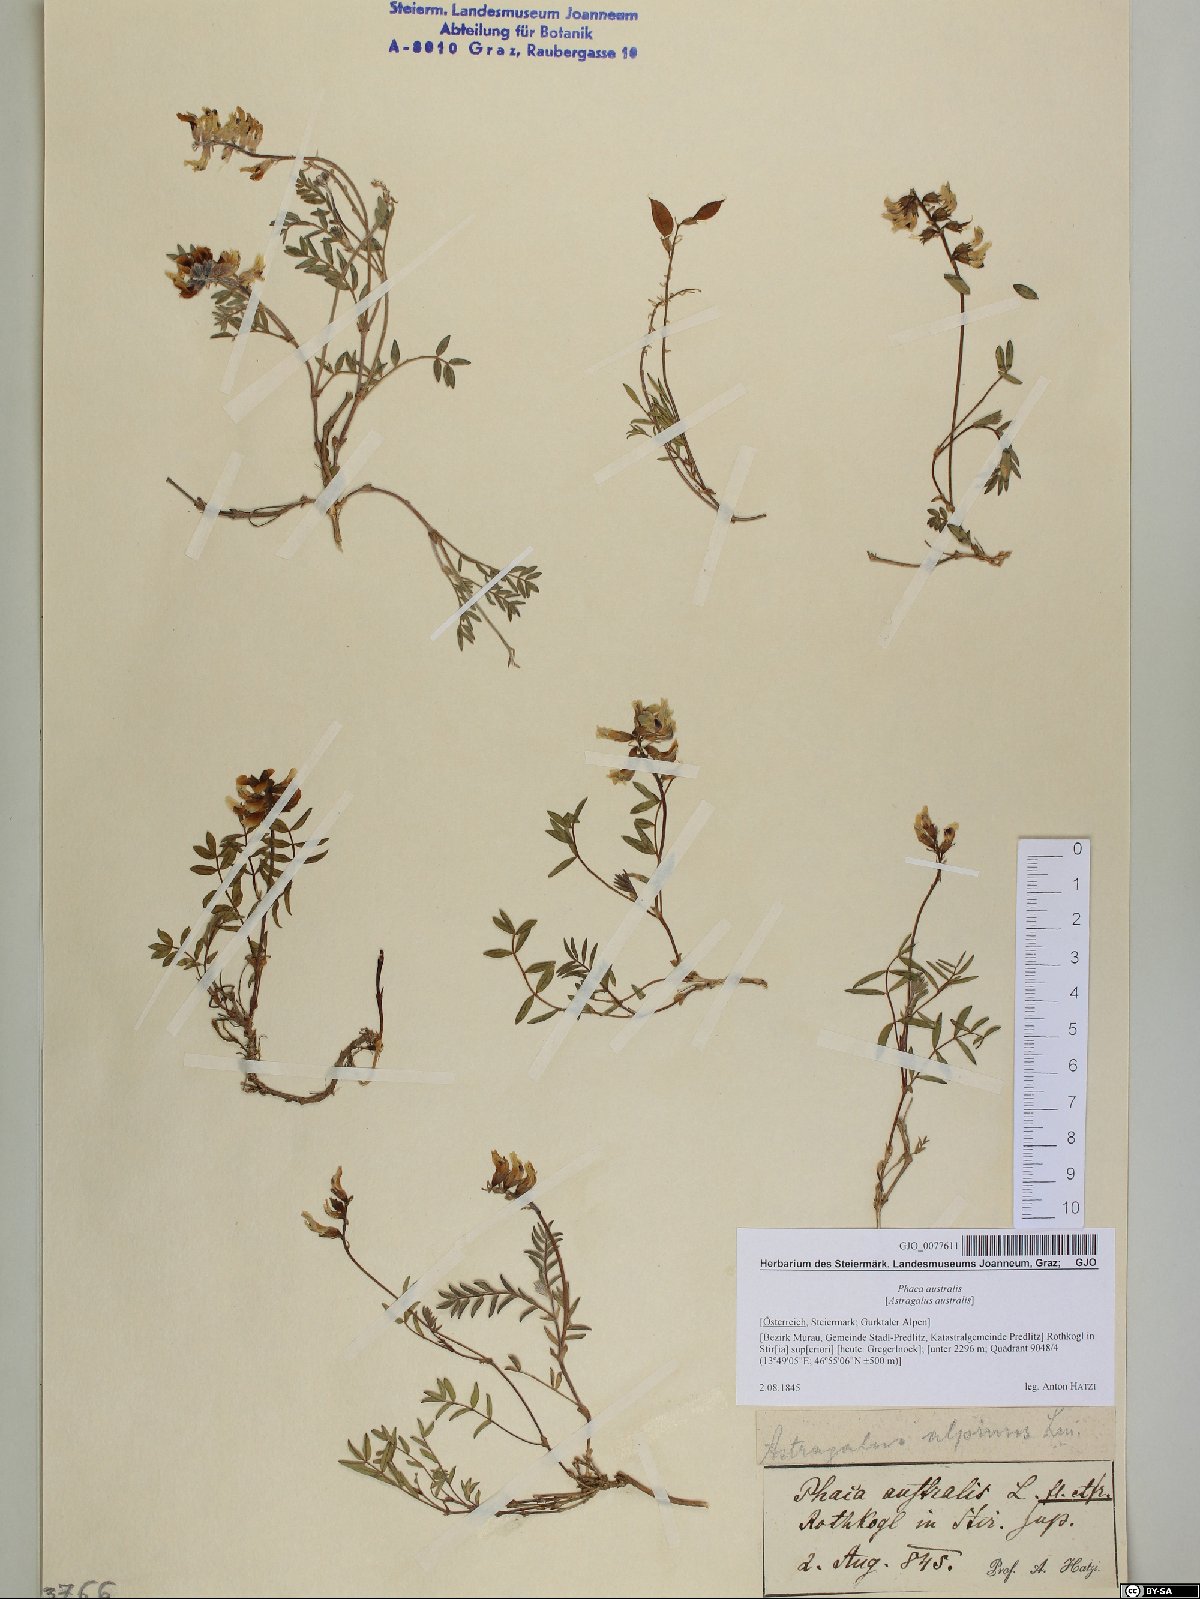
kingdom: Plantae
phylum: Tracheophyta
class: Magnoliopsida
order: Fabales
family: Fabaceae
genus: Astragalus
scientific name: Astragalus australis
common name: Indian milk-vetch
